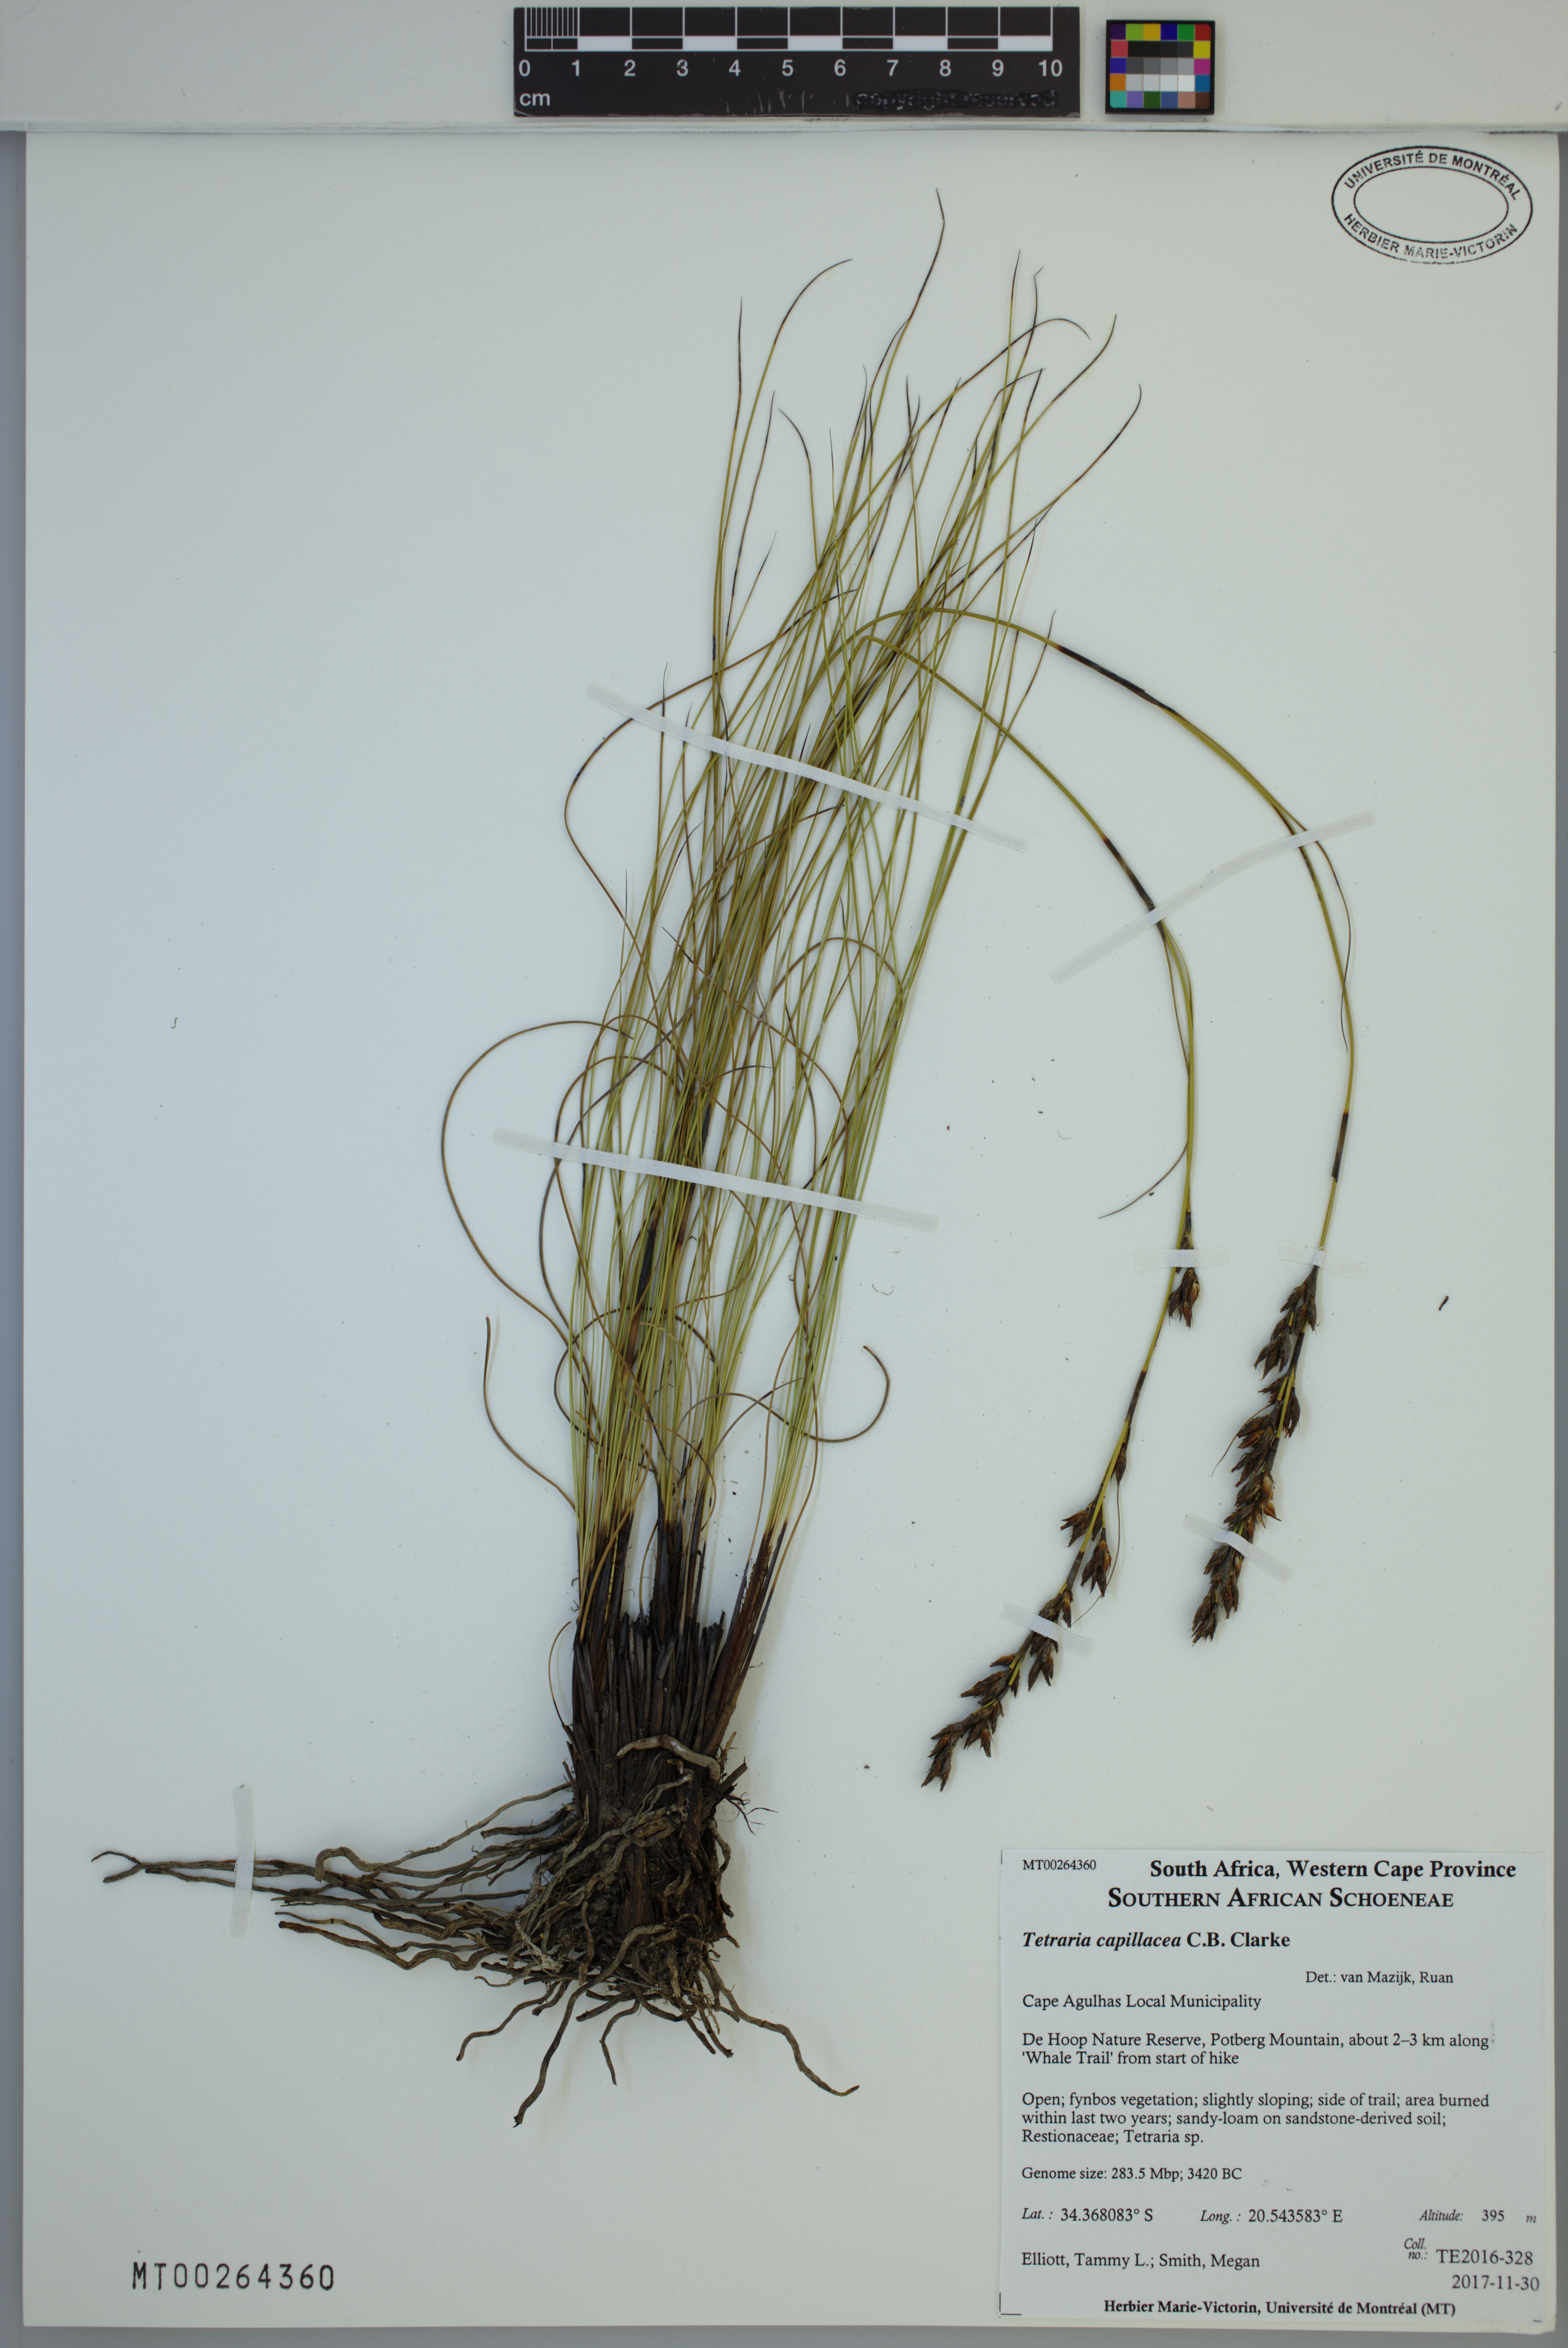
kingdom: Plantae
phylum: Tracheophyta
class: Liliopsida
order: Poales
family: Cyperaceae
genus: Tetraria
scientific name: Tetraria capillacea
